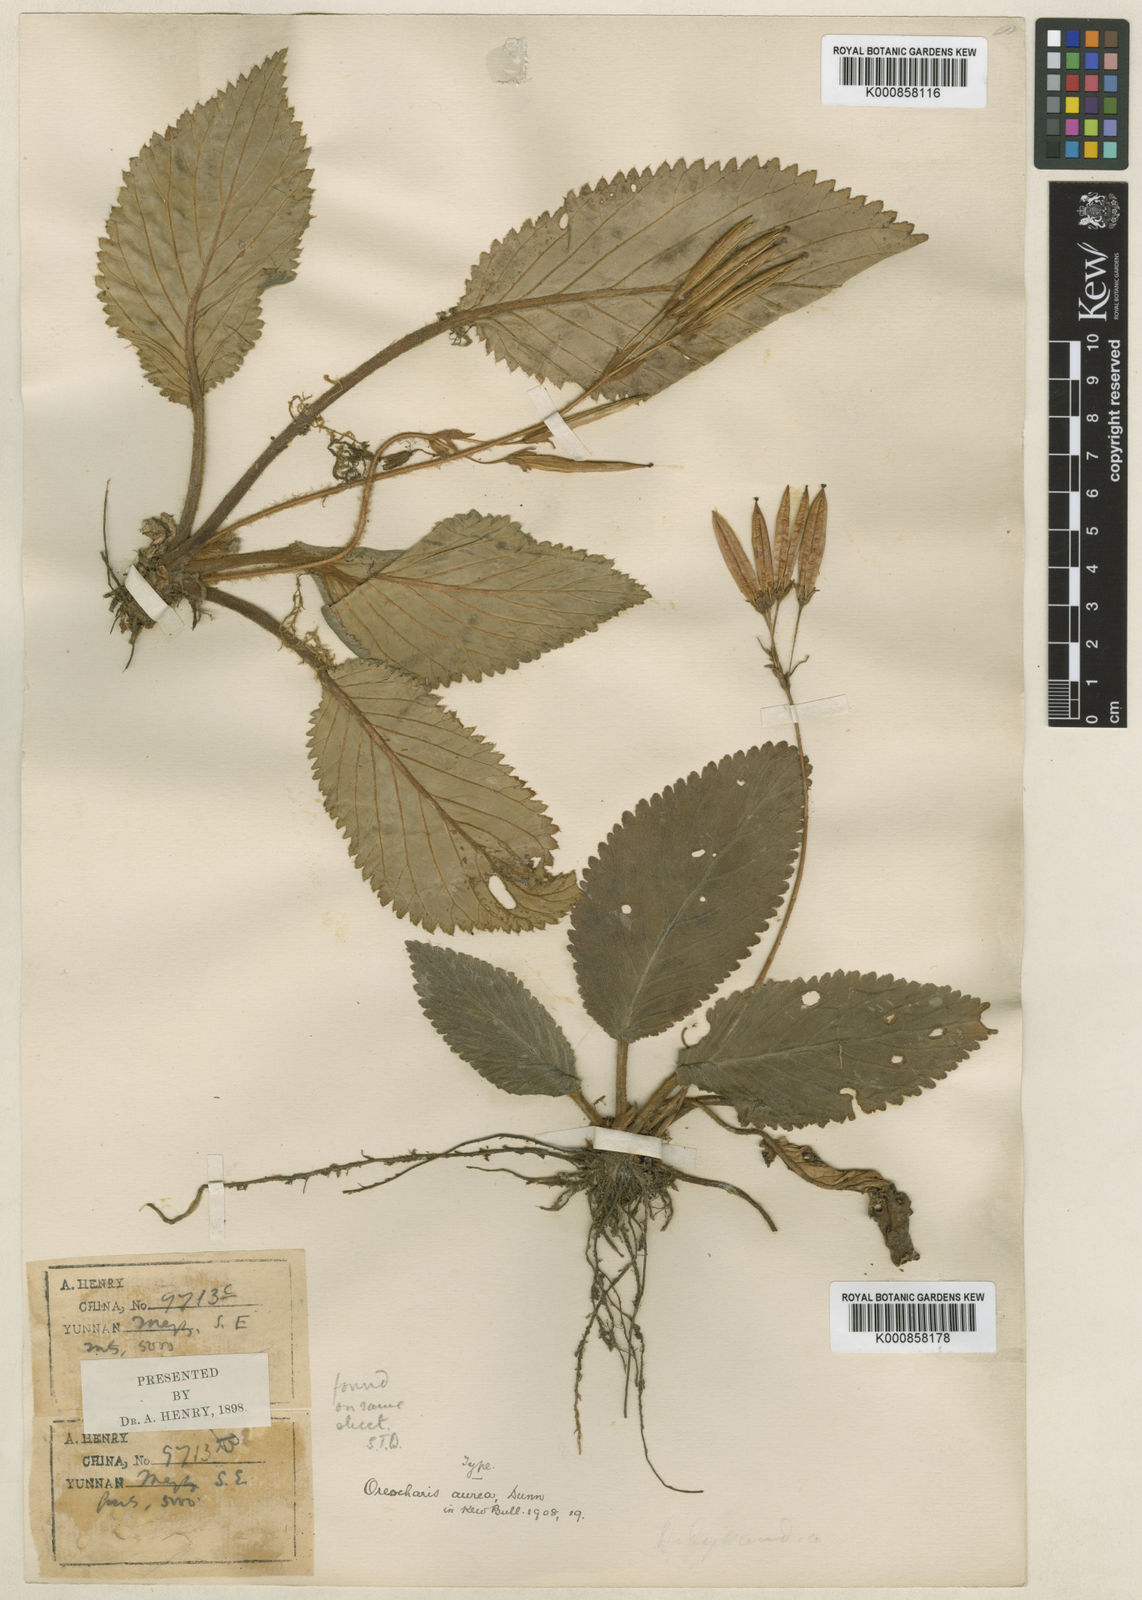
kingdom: Plantae
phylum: Tracheophyta
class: Magnoliopsida
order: Lamiales
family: Gesneriaceae
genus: Oreocharis
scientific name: Oreocharis aurea
